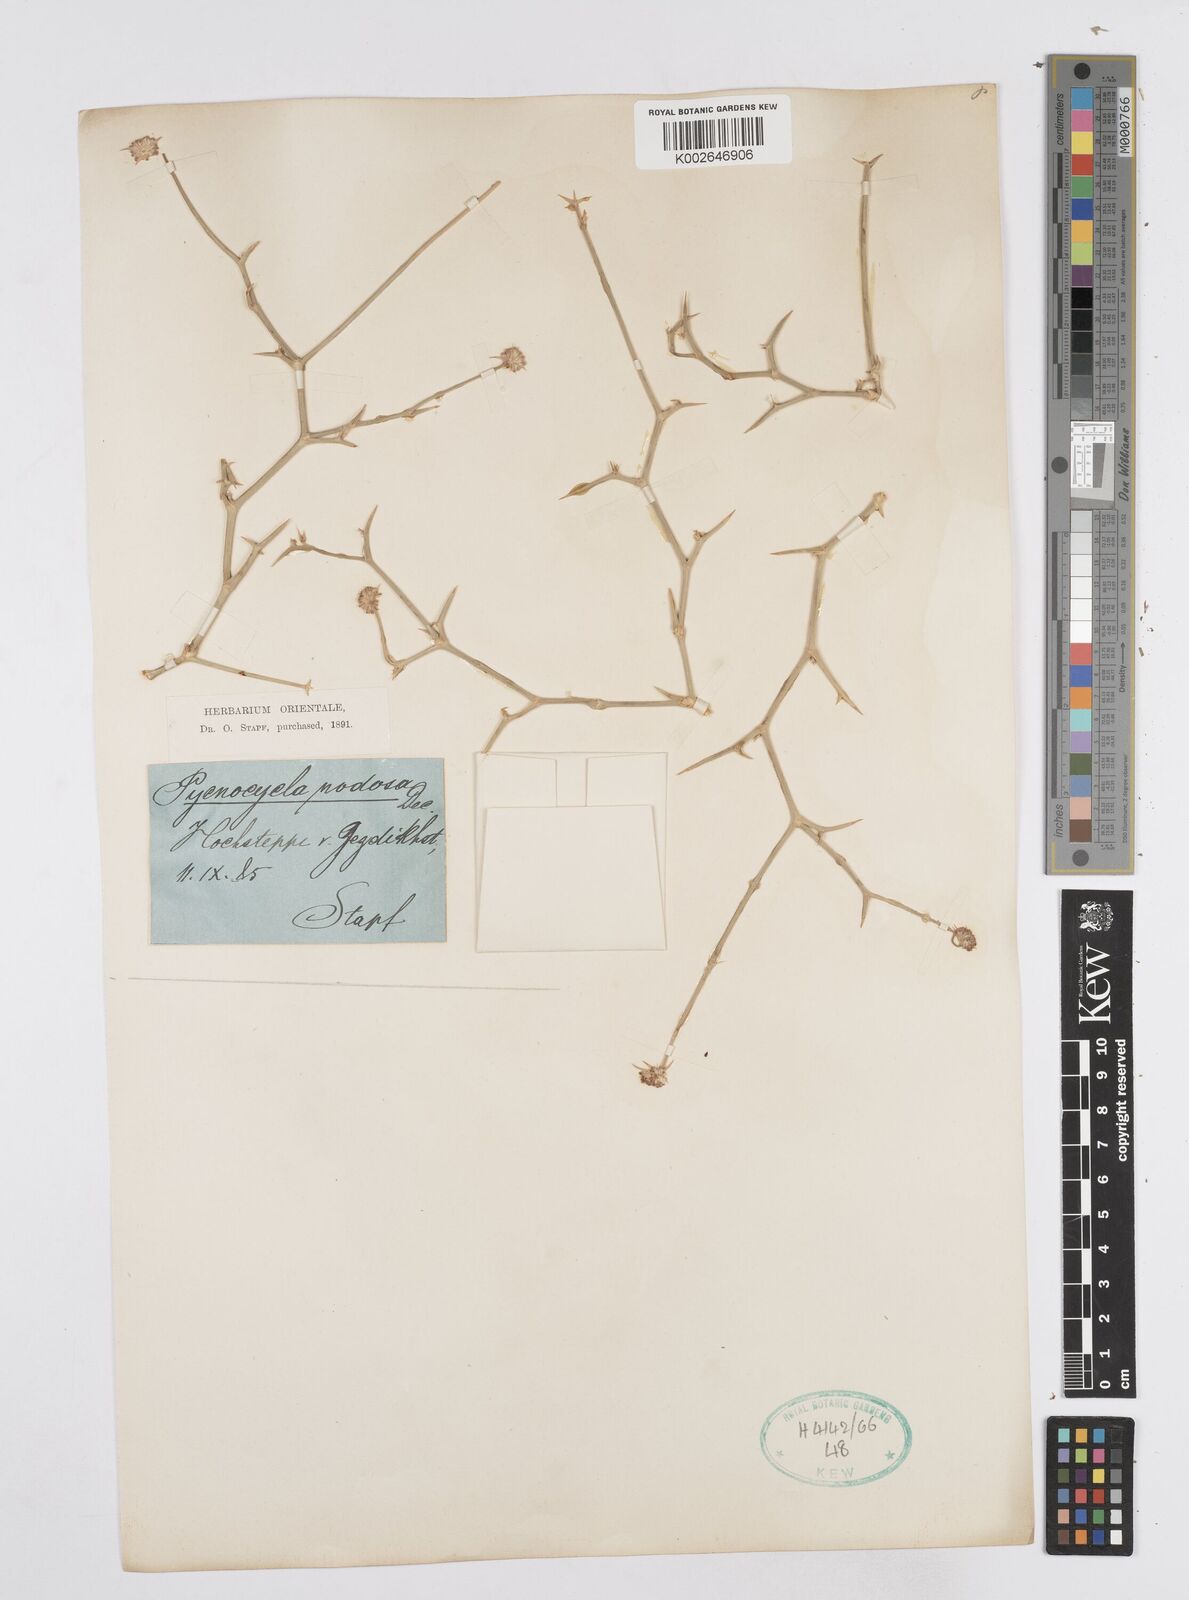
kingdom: Plantae
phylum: Tracheophyta
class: Magnoliopsida
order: Apiales
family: Apiaceae
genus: Pycnocycla
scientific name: Pycnocycla nodiflora
